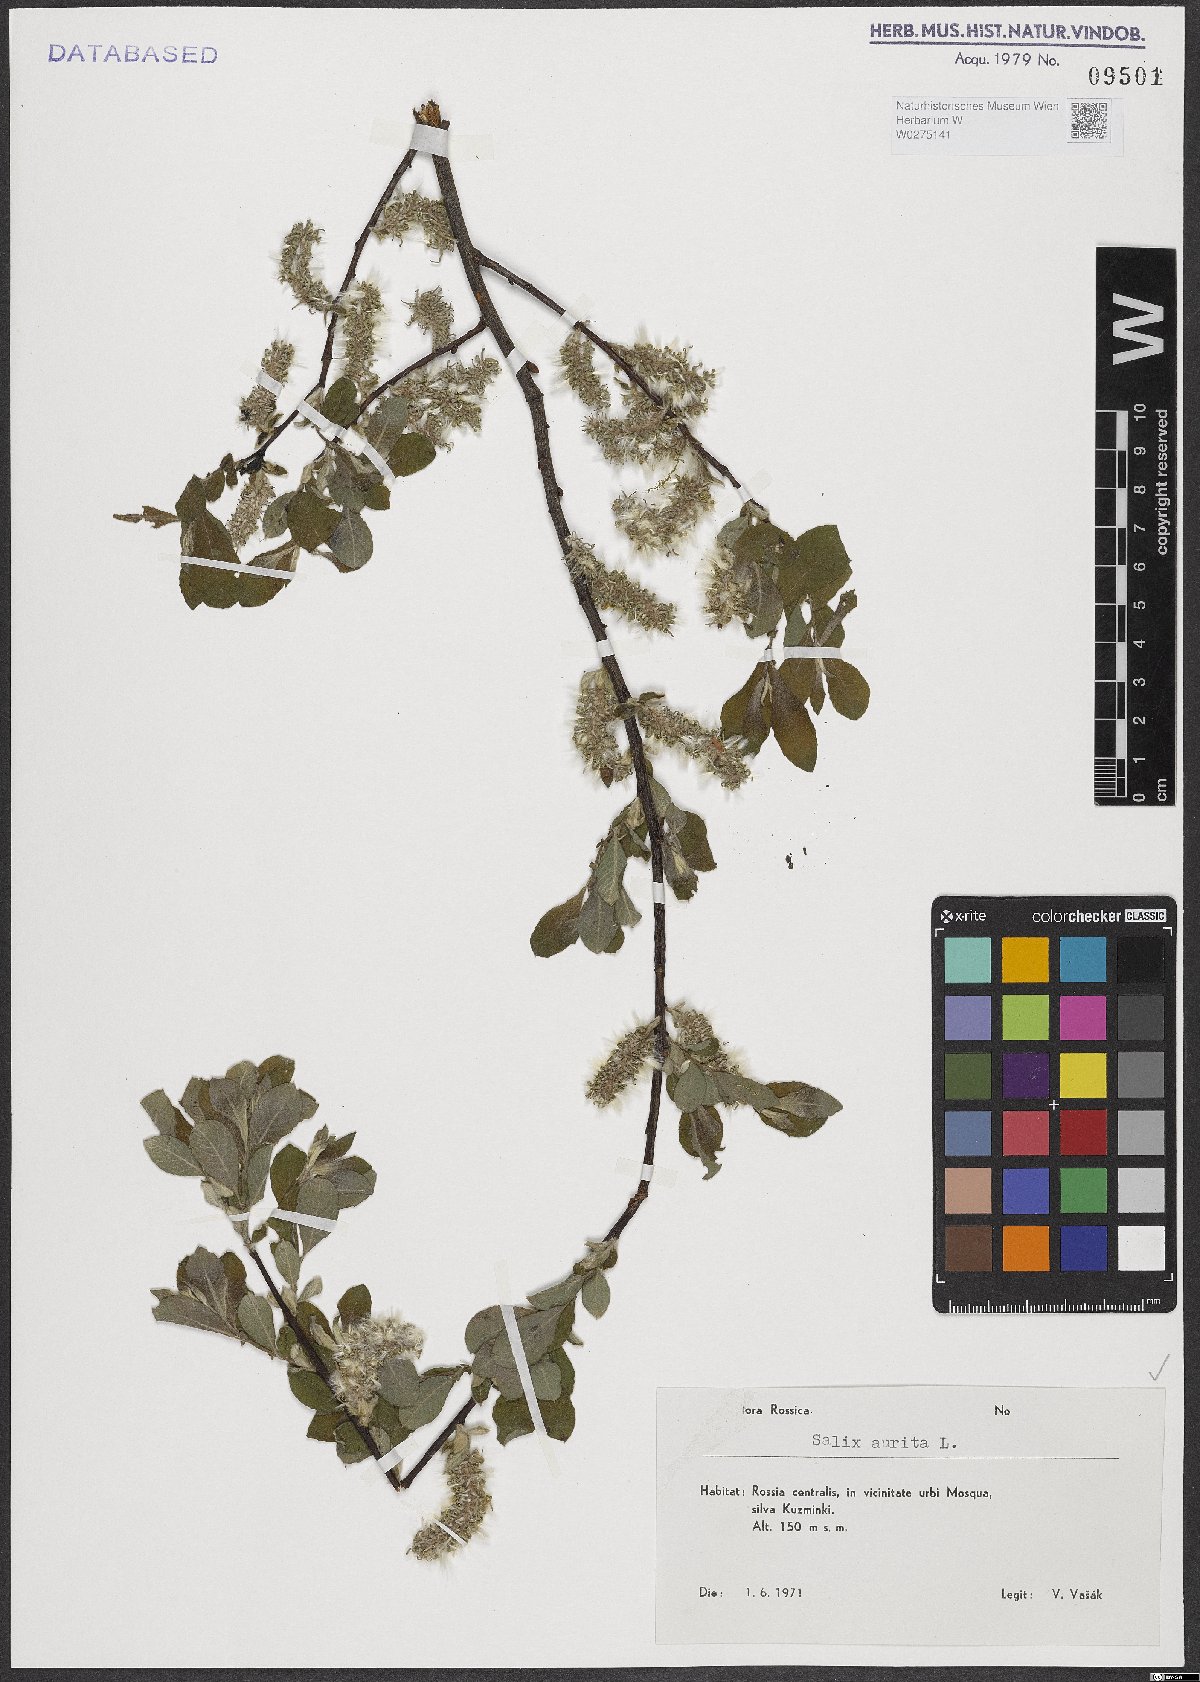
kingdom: Plantae
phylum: Tracheophyta
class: Magnoliopsida
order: Malpighiales
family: Salicaceae
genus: Salix
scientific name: Salix aurita
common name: Eared willow
